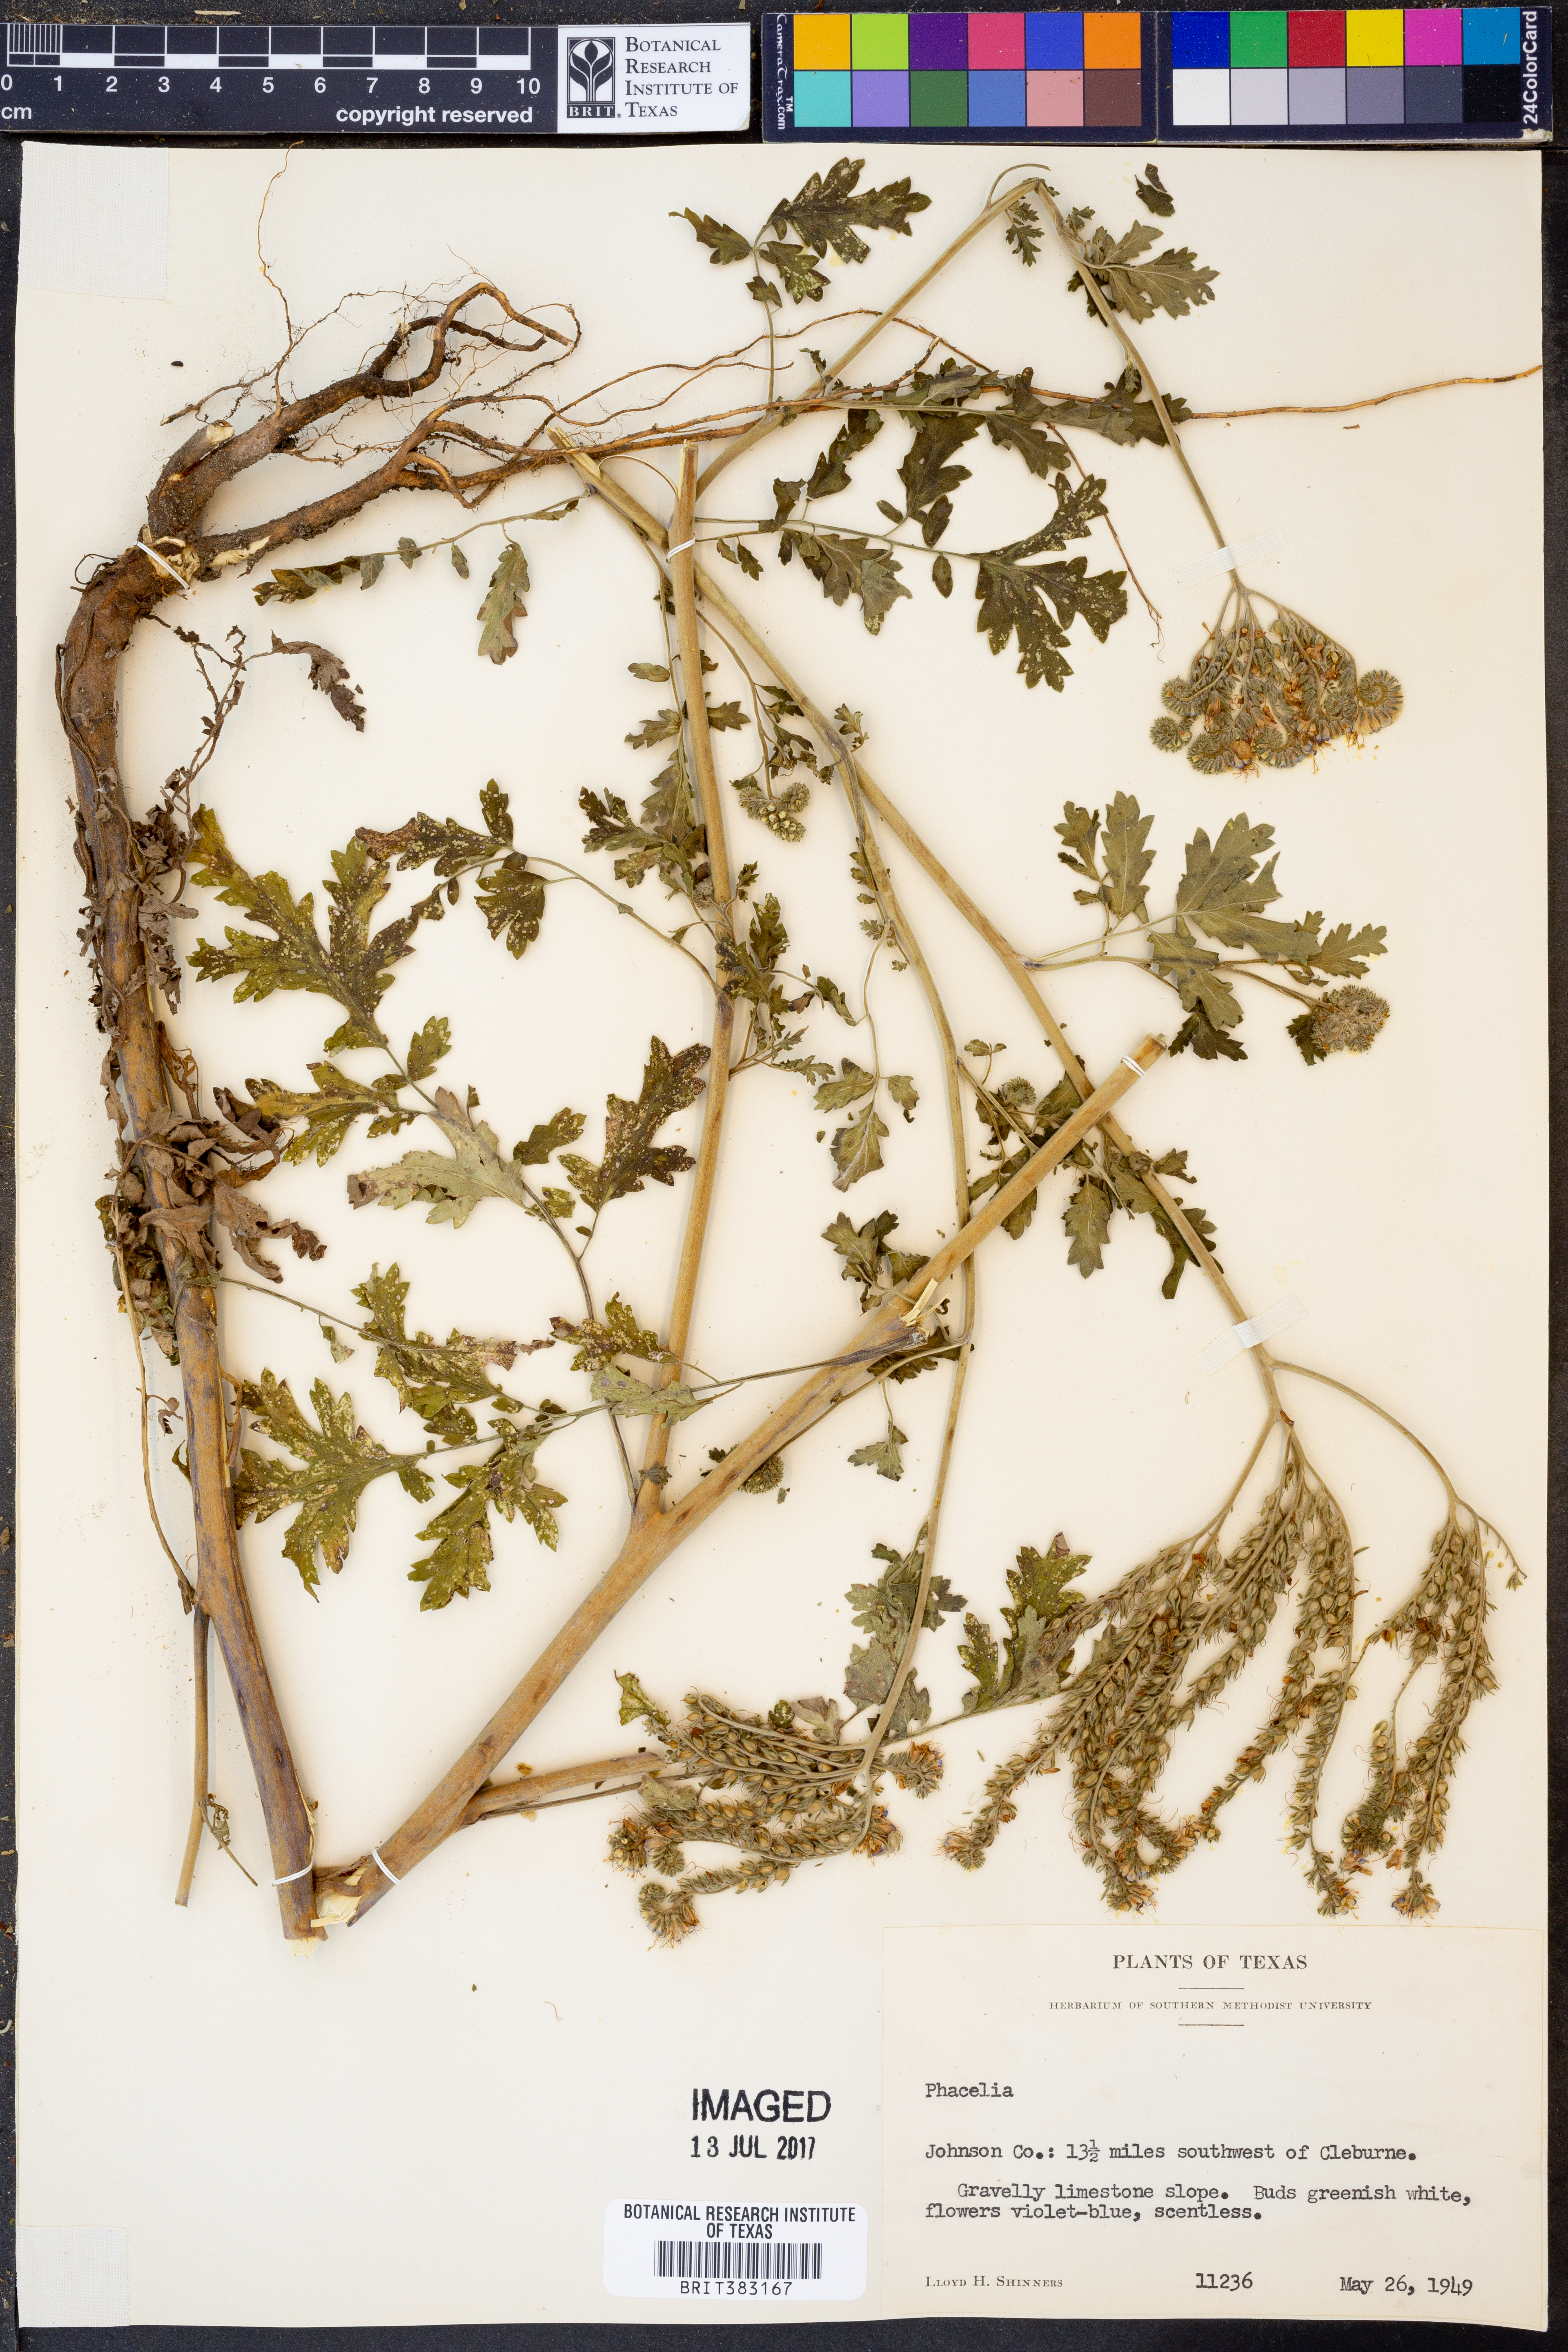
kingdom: Plantae
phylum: Tracheophyta
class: Magnoliopsida
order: Boraginales
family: Hydrophyllaceae
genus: Phacelia
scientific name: Phacelia
